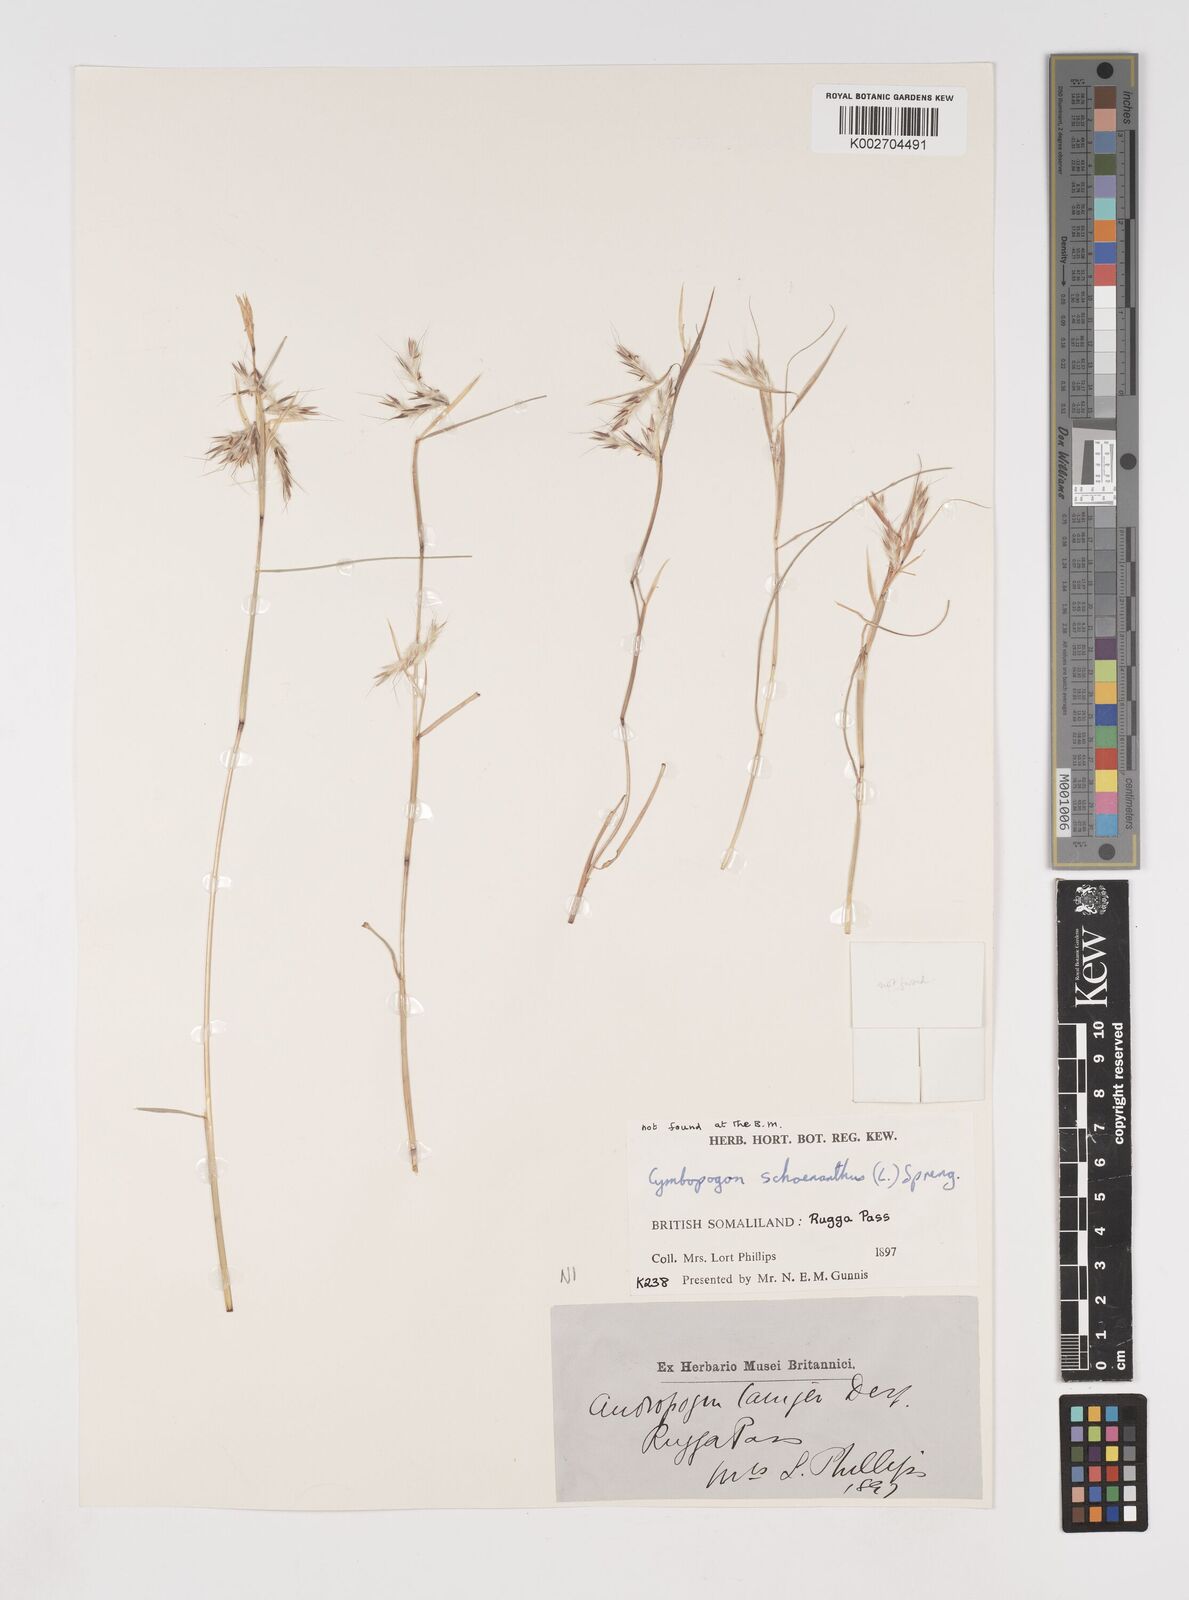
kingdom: Plantae
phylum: Tracheophyta
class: Liliopsida
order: Poales
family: Poaceae
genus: Cymbopogon
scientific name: Cymbopogon schoenanthus
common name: Geranium grass
